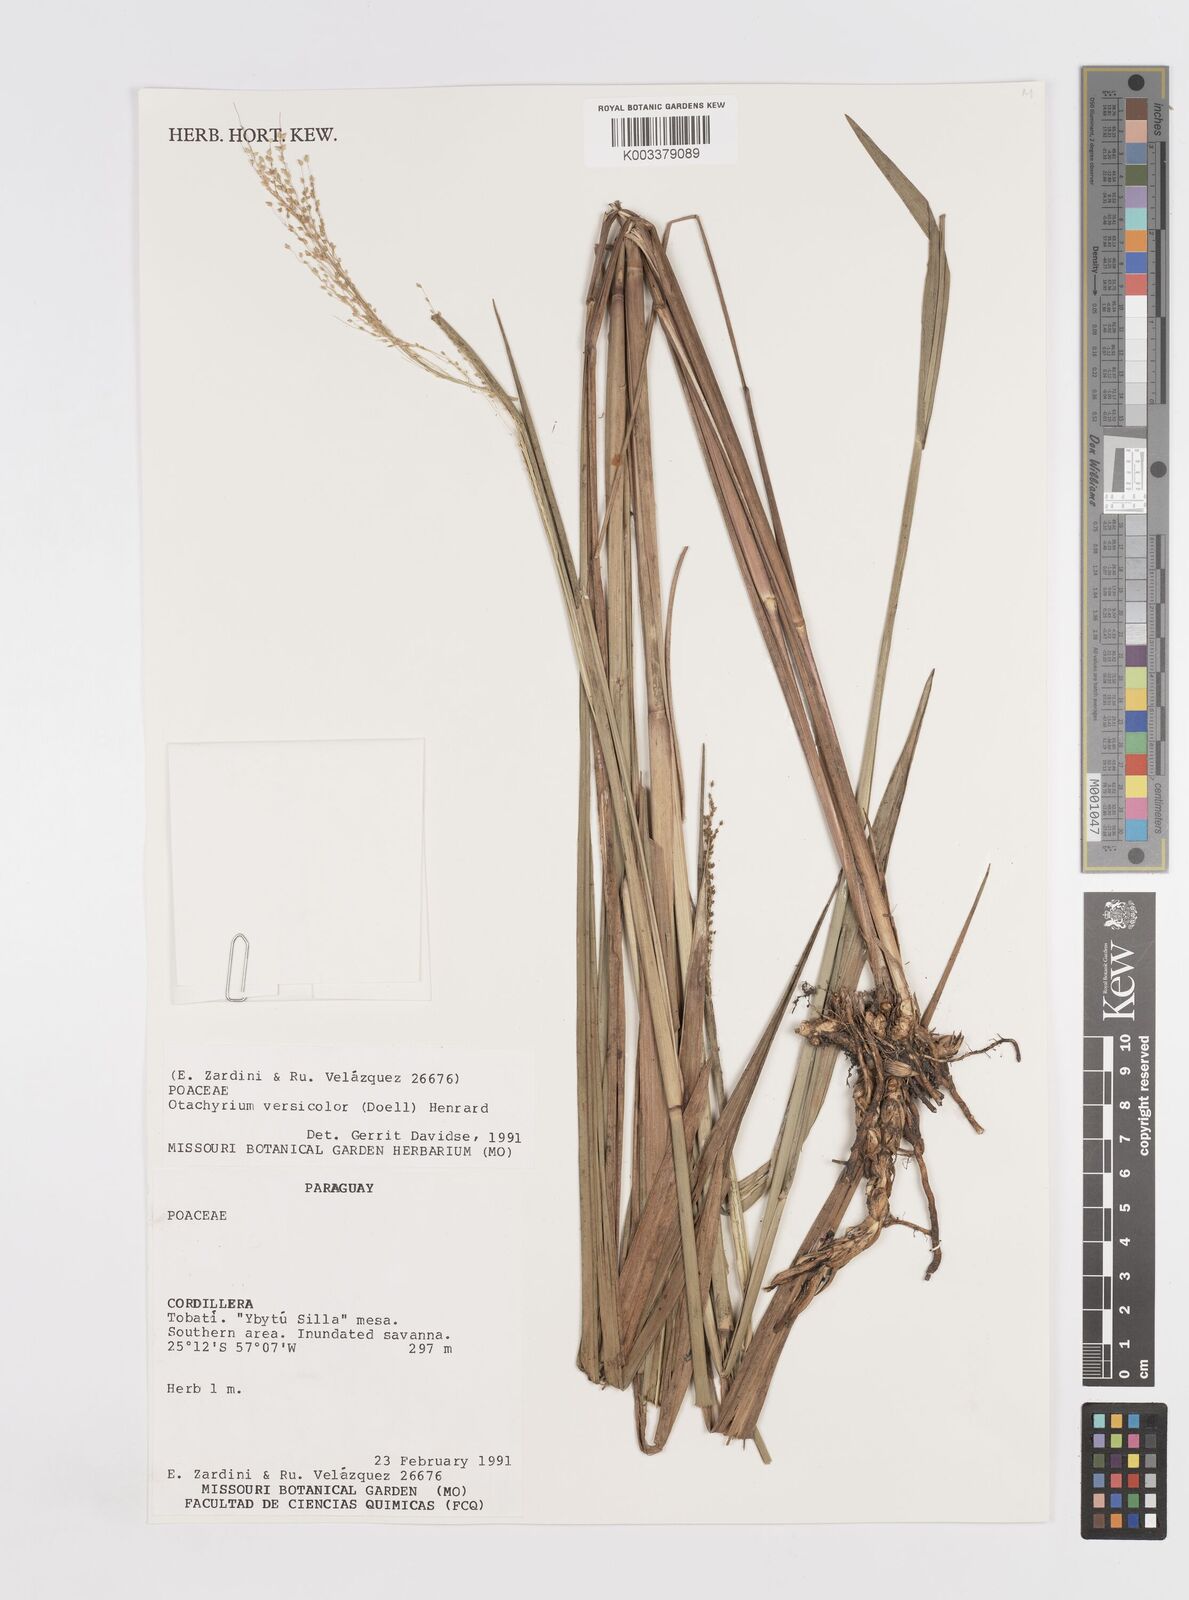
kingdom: Plantae
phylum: Tracheophyta
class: Liliopsida
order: Poales
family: Poaceae
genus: Otachyrium
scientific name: Otachyrium versicolor
